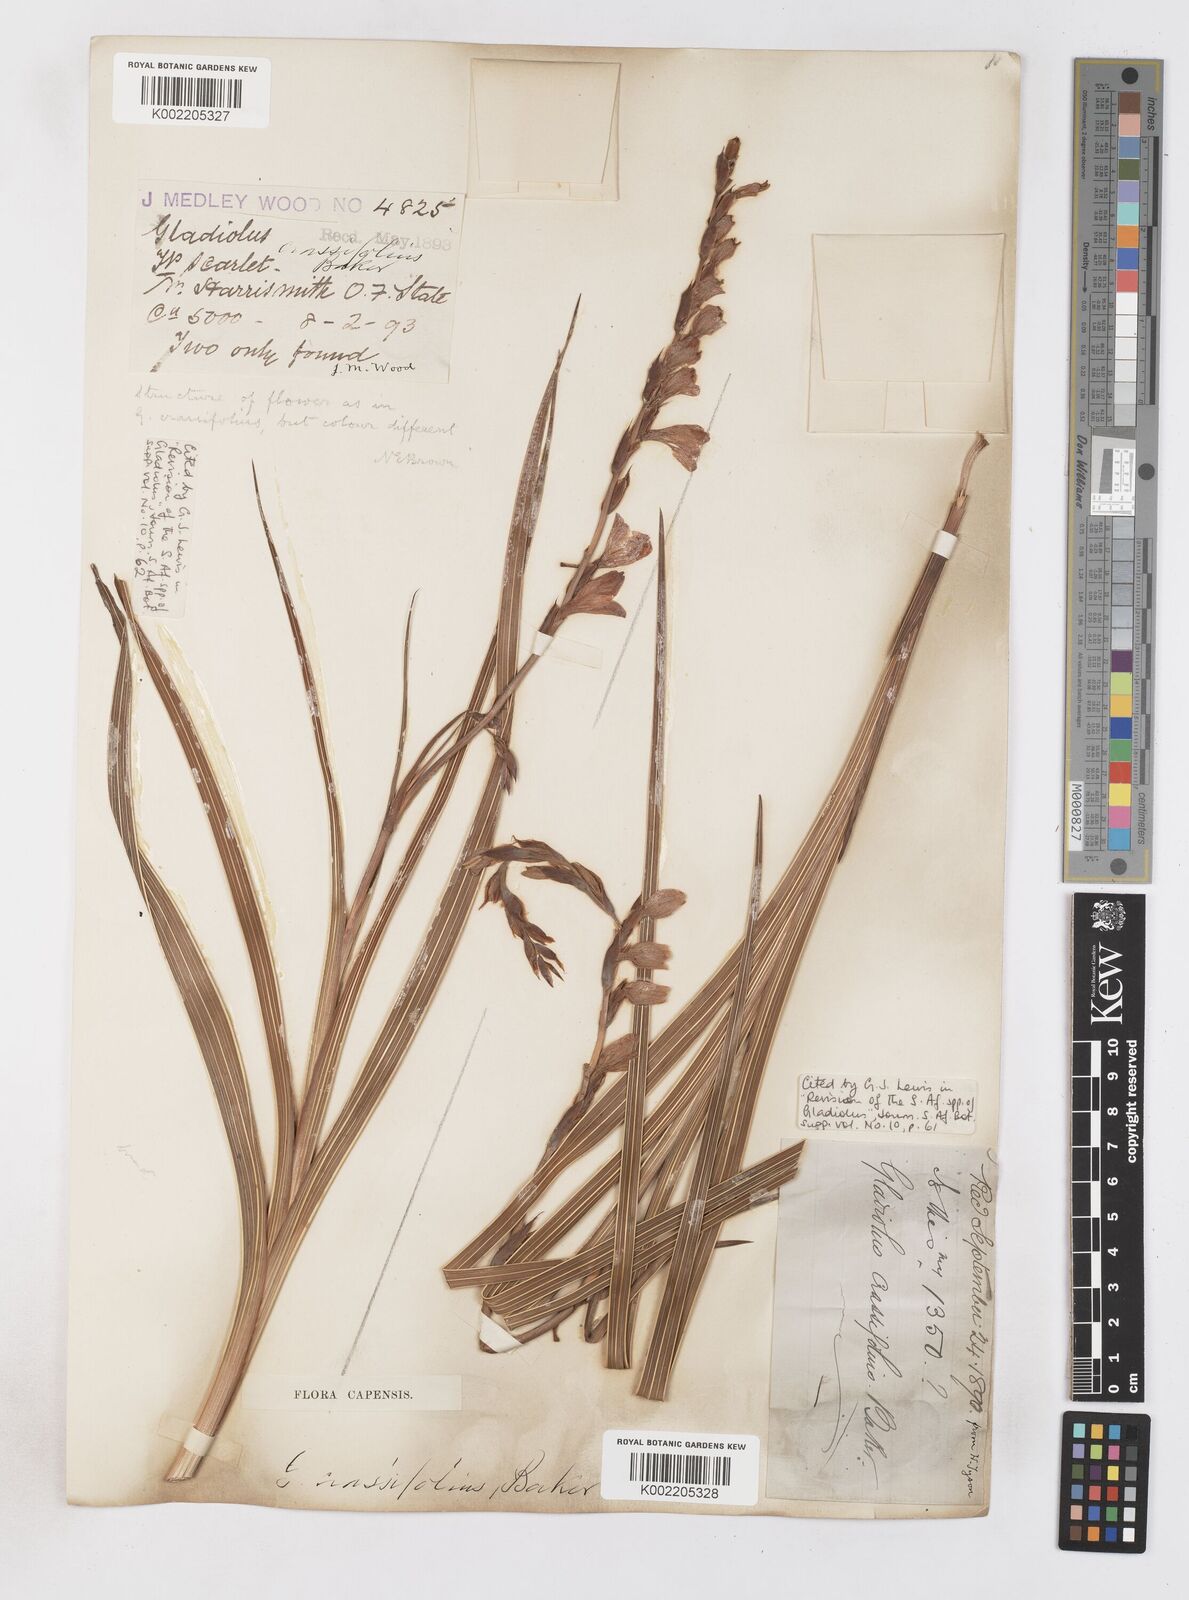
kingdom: Plantae
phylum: Tracheophyta
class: Liliopsida
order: Asparagales
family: Iridaceae
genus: Gladiolus
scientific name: Gladiolus crassifolius
